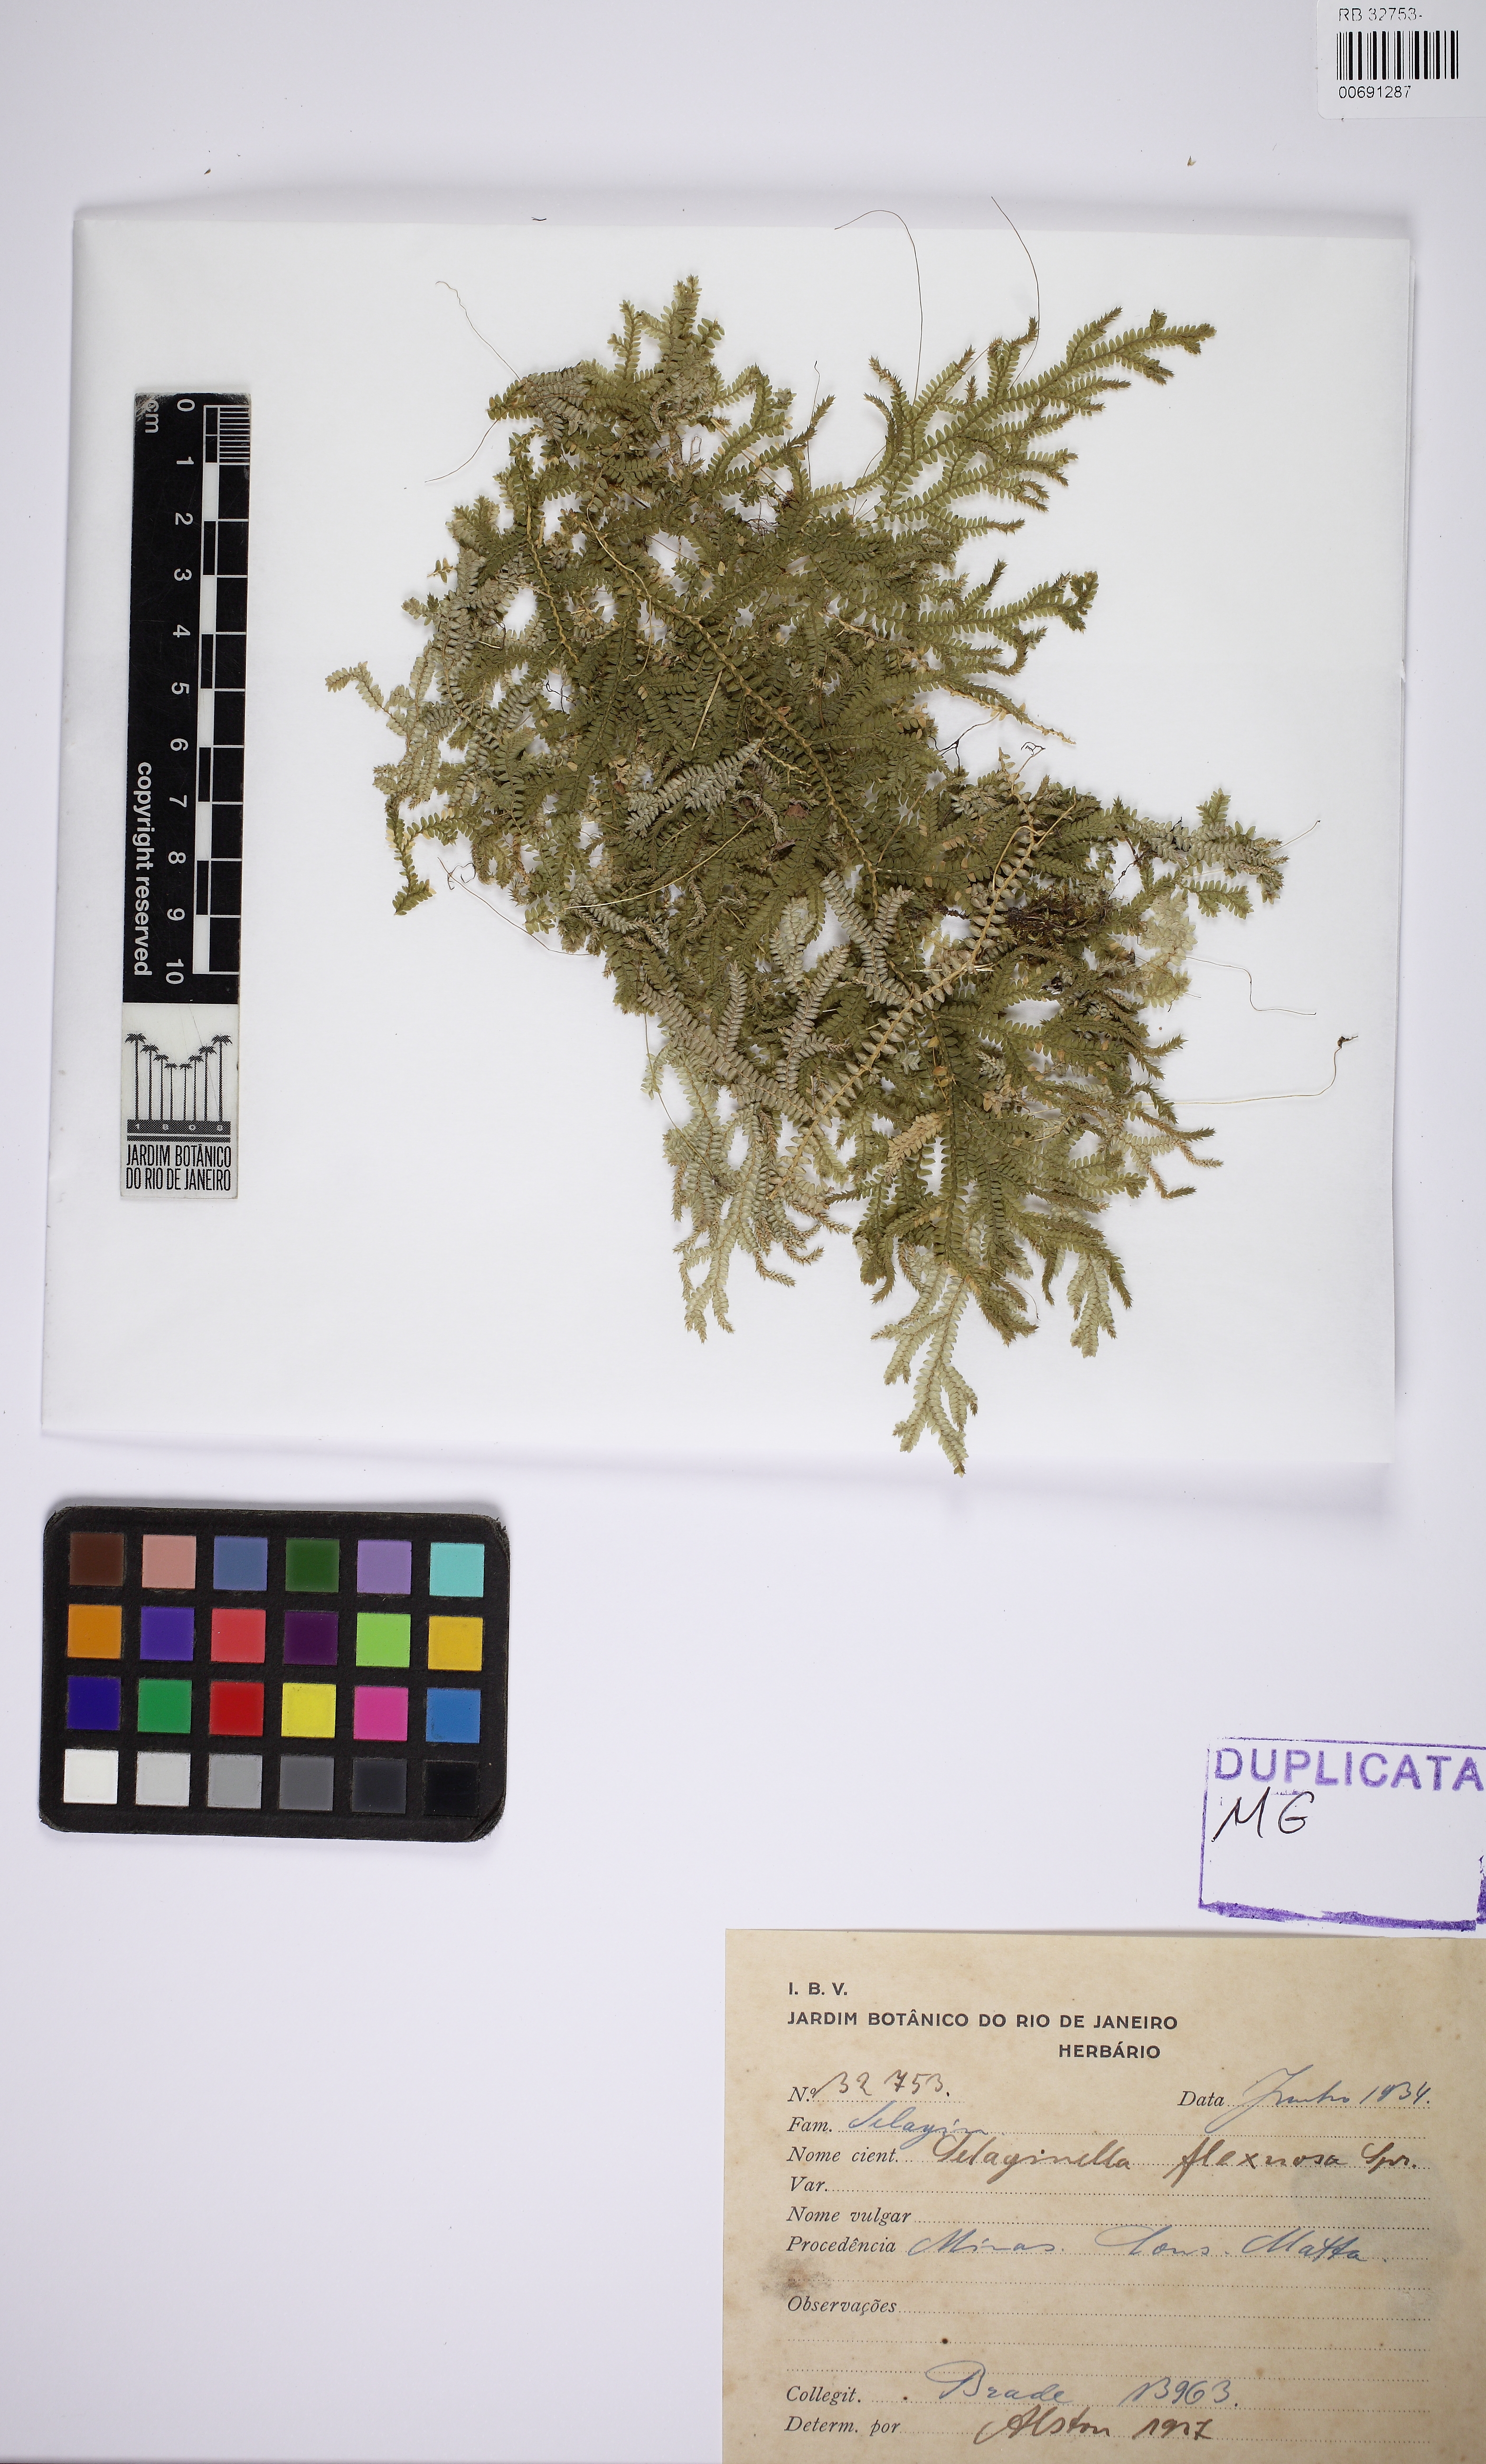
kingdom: Plantae
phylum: Tracheophyta
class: Lycopodiopsida
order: Selaginellales
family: Selaginellaceae
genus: Selaginella
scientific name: Selaginella flexuosa
